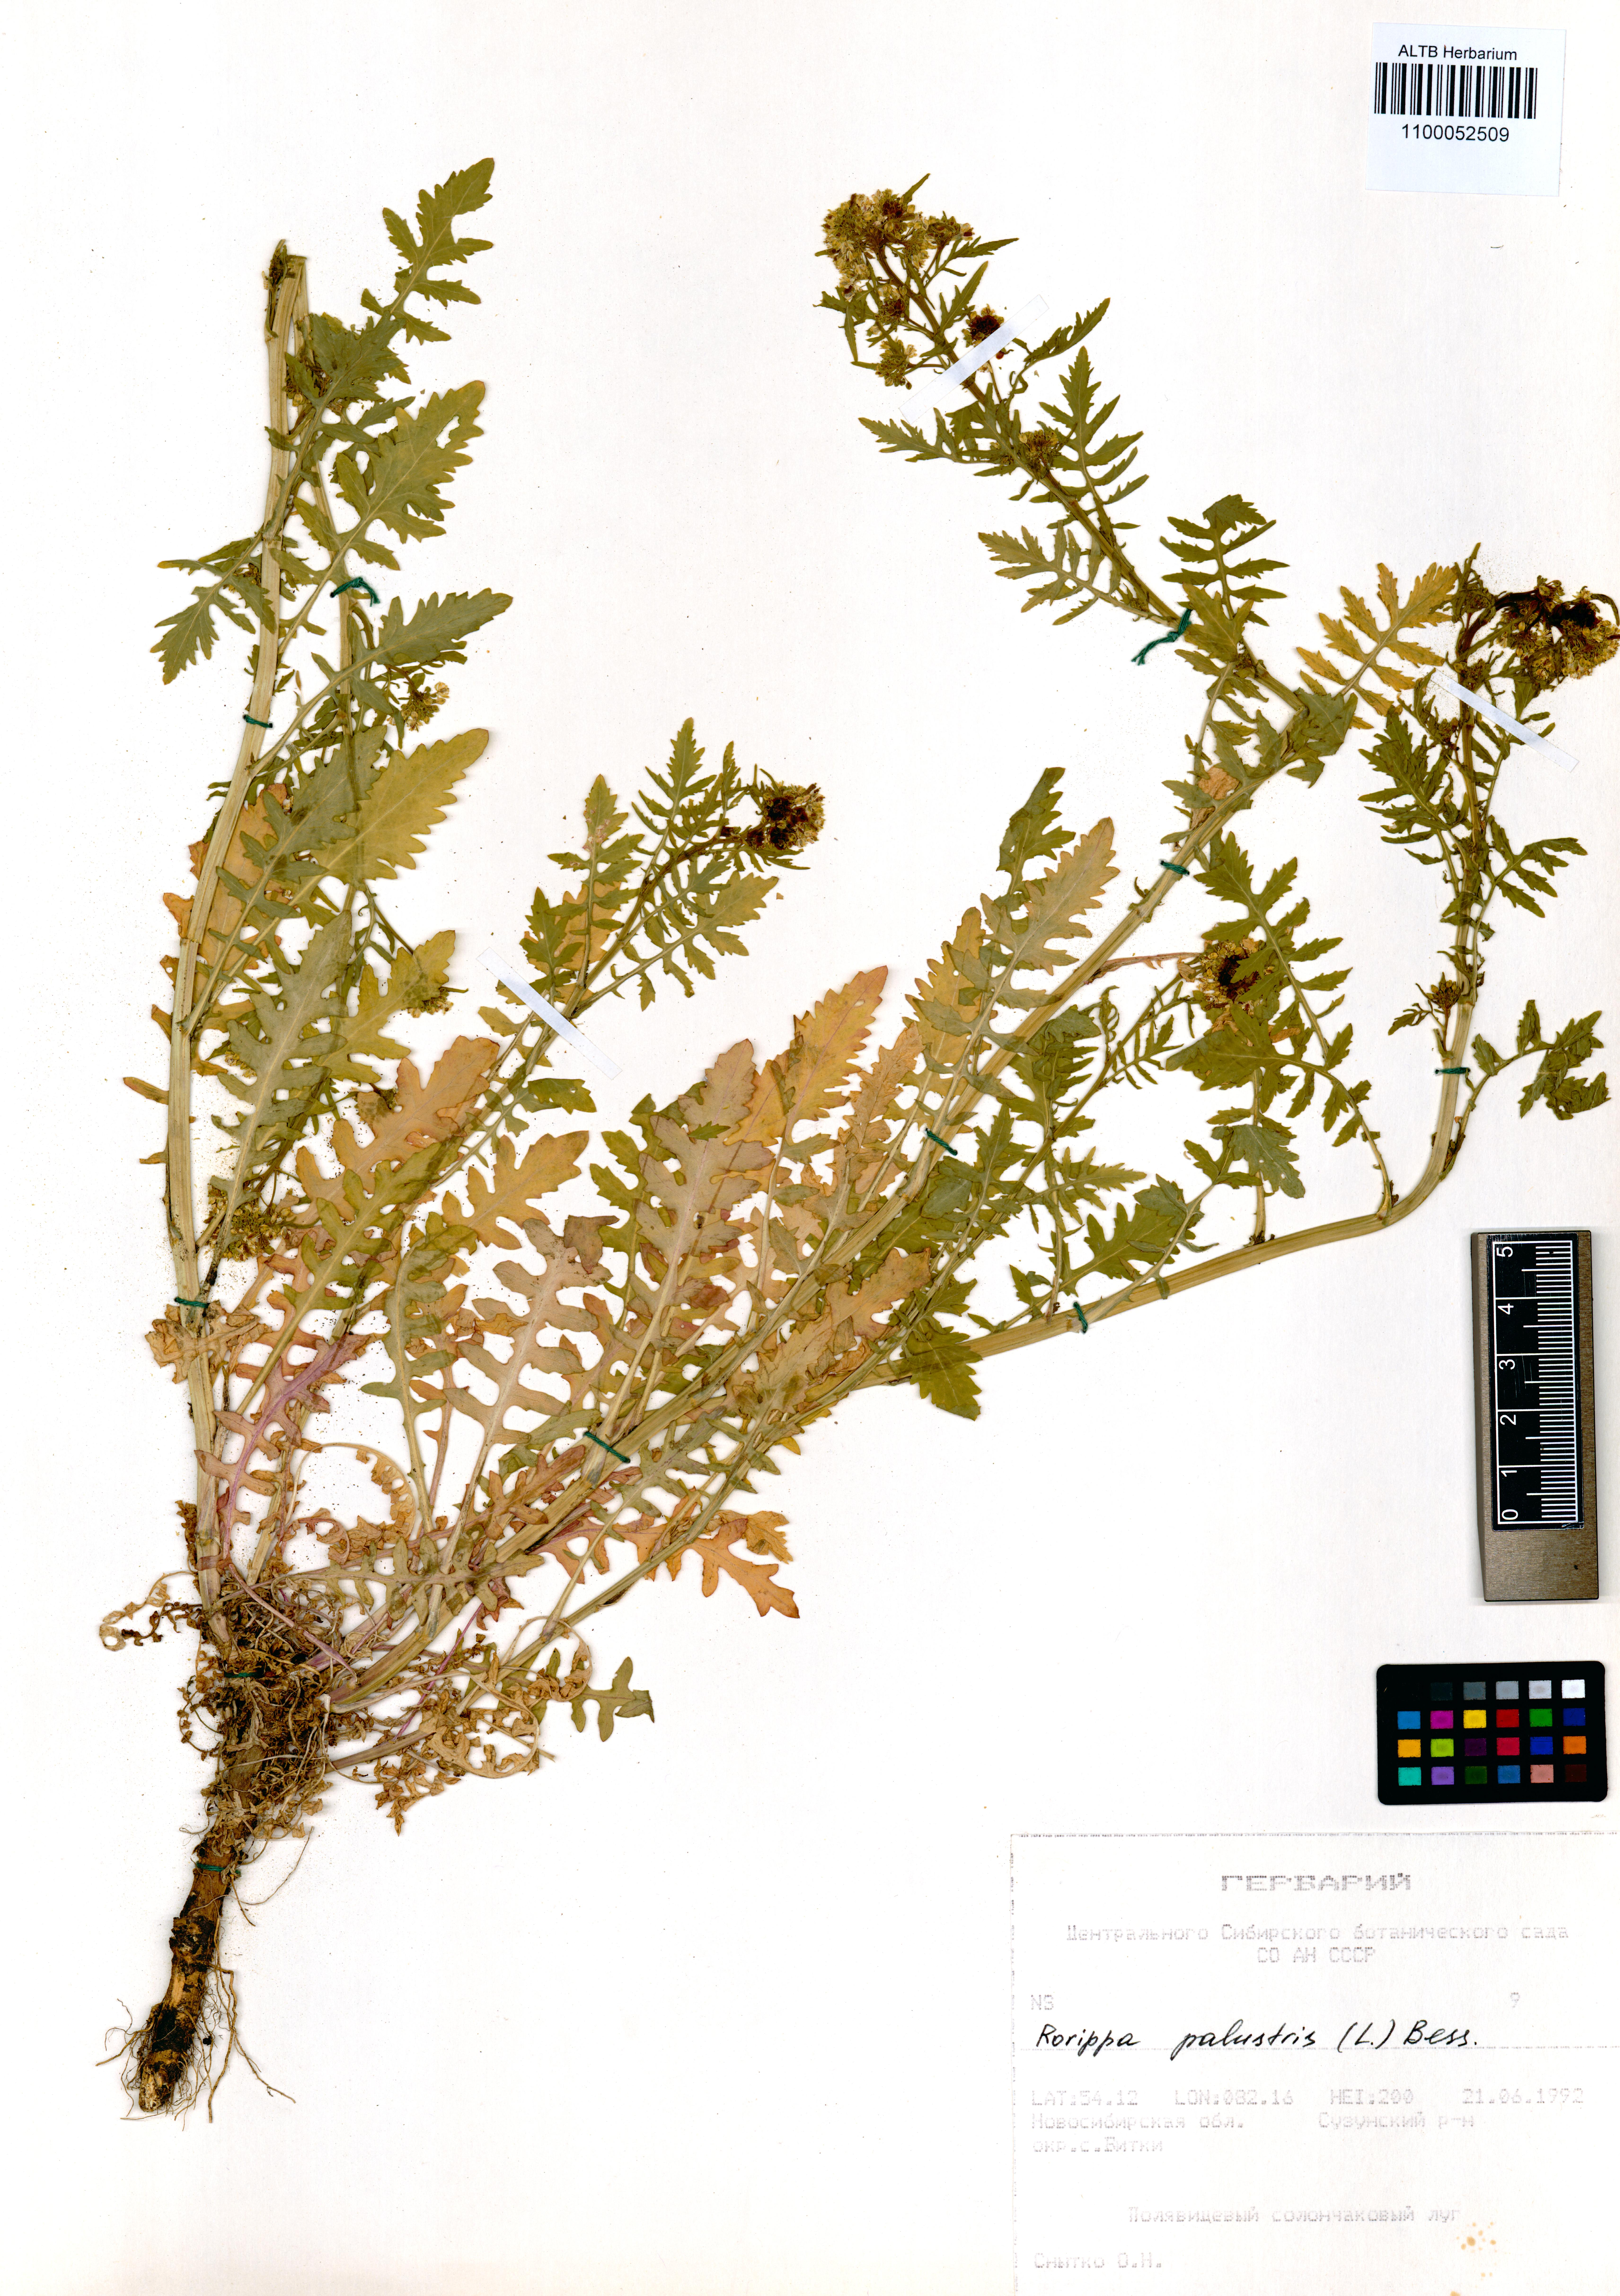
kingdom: Plantae
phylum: Tracheophyta
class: Magnoliopsida
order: Brassicales
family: Brassicaceae
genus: Rorippa
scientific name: Rorippa palustris
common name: Marsh yellow-cress
